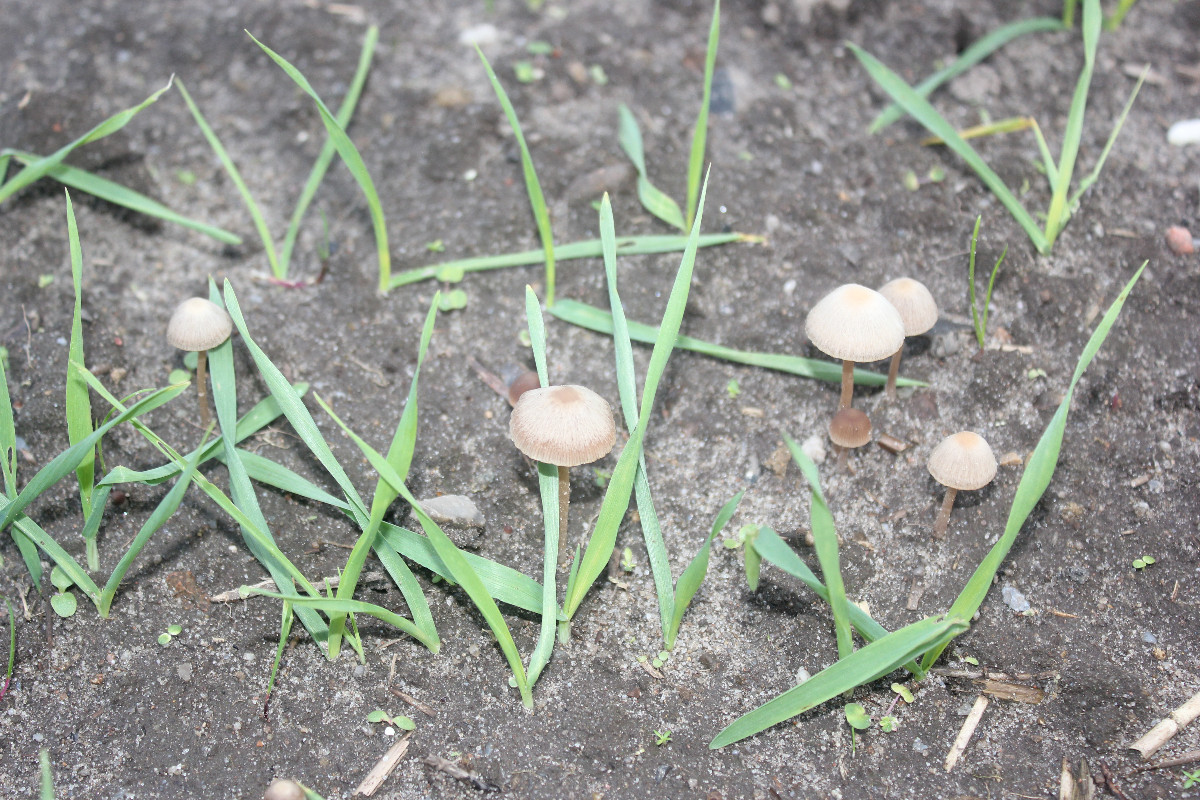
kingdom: Fungi
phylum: Basidiomycota
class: Agaricomycetes
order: Agaricales
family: Psathyrellaceae
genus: Psathyrella
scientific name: Psathyrella orbitarum
